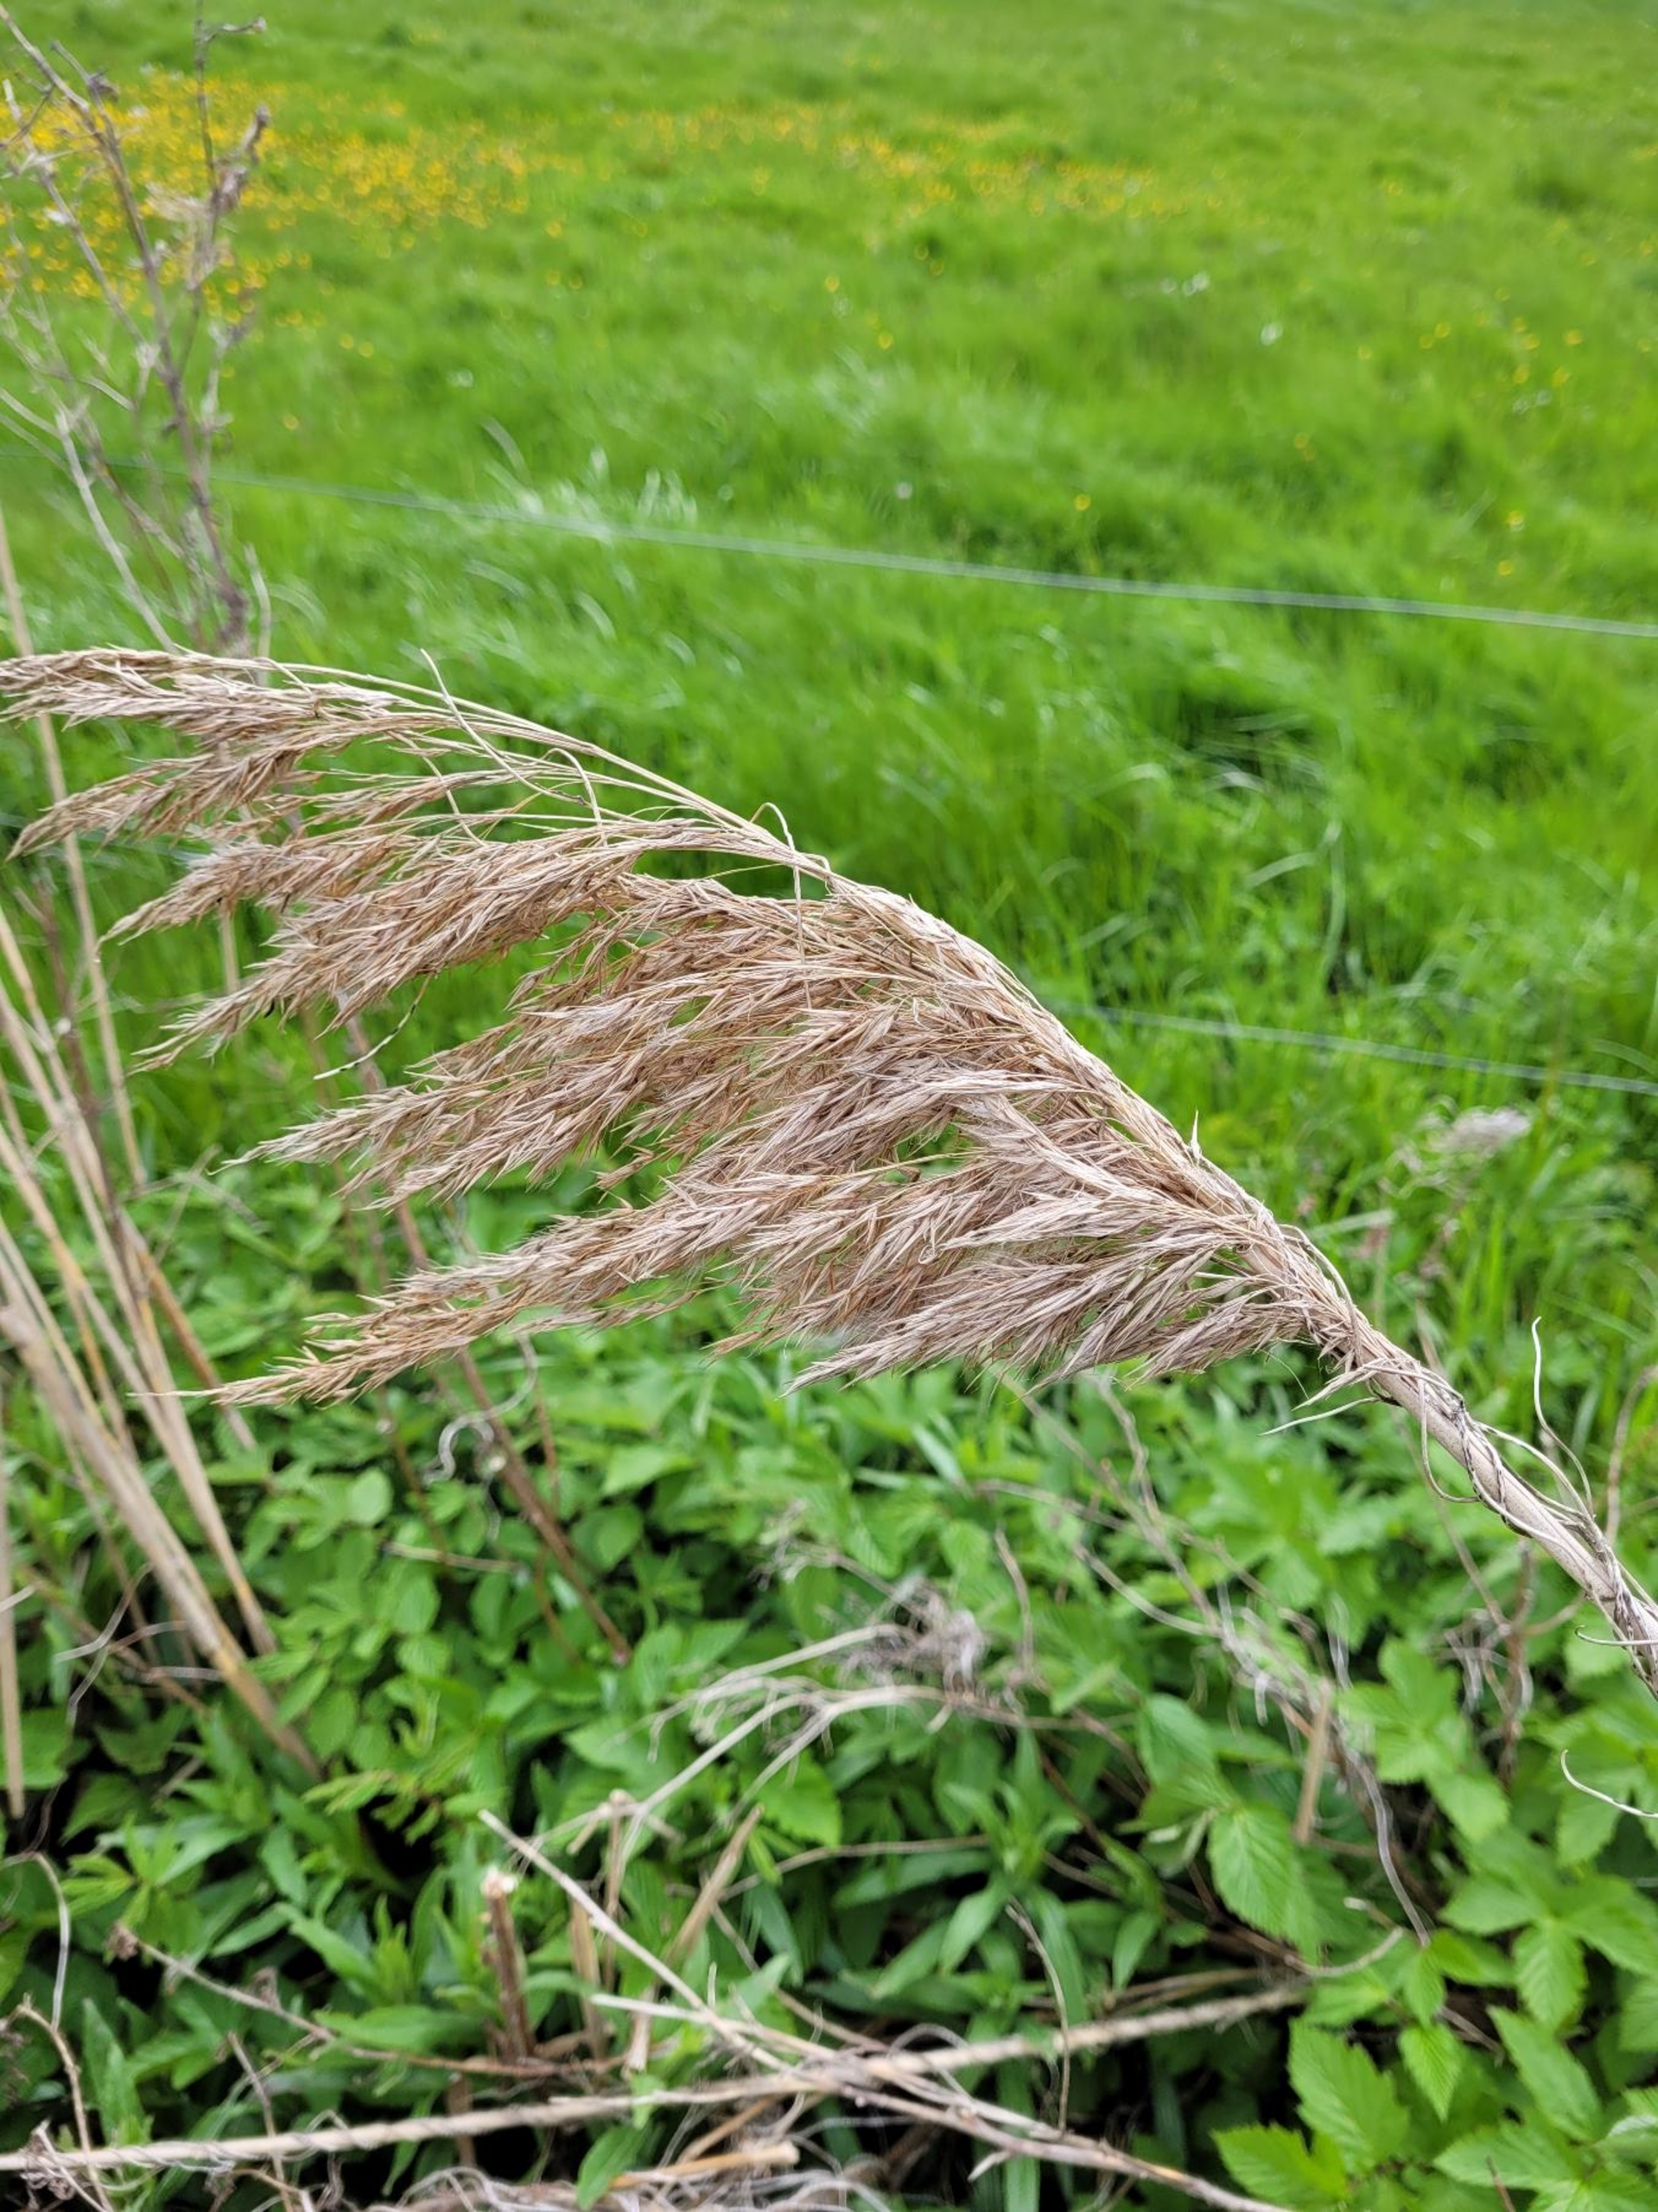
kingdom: Plantae
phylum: Tracheophyta
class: Liliopsida
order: Poales
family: Poaceae
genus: Phragmites
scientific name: Phragmites australis
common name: Tagrør
